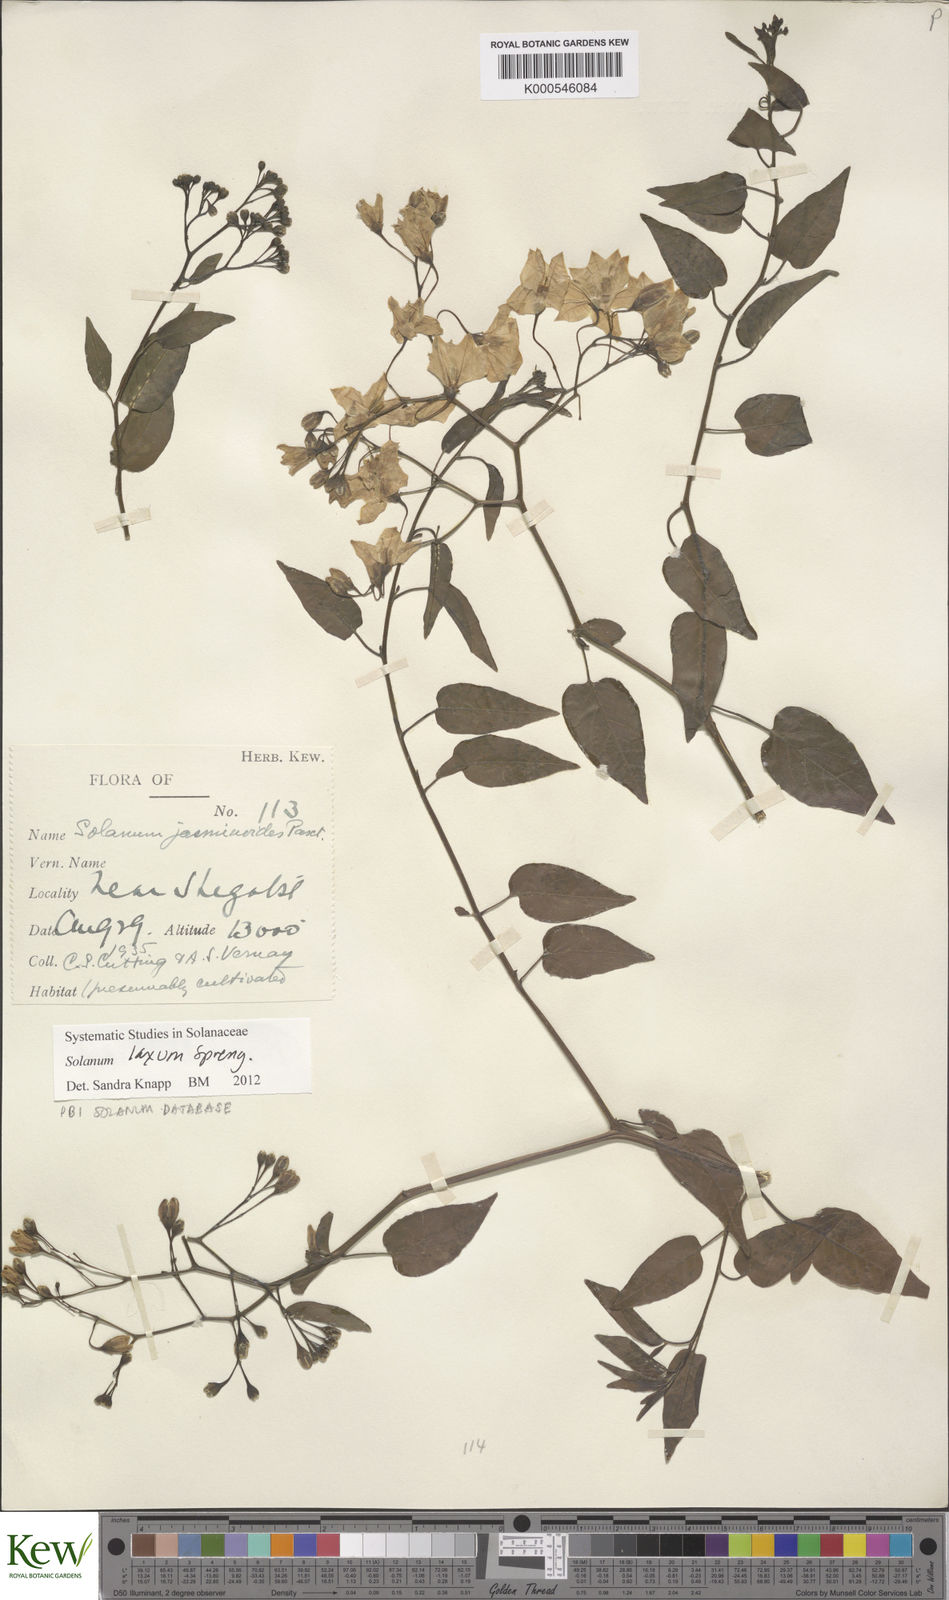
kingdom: Plantae
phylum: Tracheophyta
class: Magnoliopsida
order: Solanales
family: Solanaceae
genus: Solanum
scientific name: Solanum laxum
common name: Nightshade
